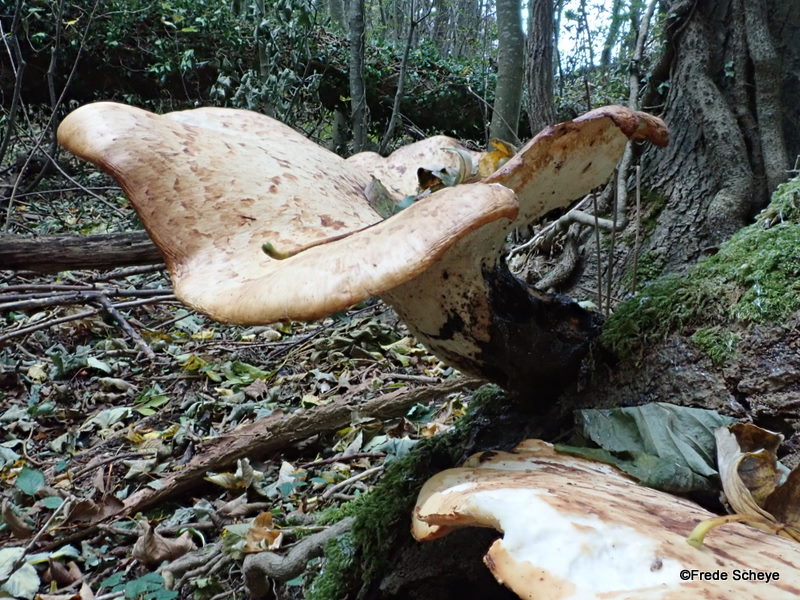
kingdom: Fungi
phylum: Basidiomycota
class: Agaricomycetes
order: Polyporales
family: Polyporaceae
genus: Cerioporus
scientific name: Cerioporus squamosus
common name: skællet stilkporesvamp
